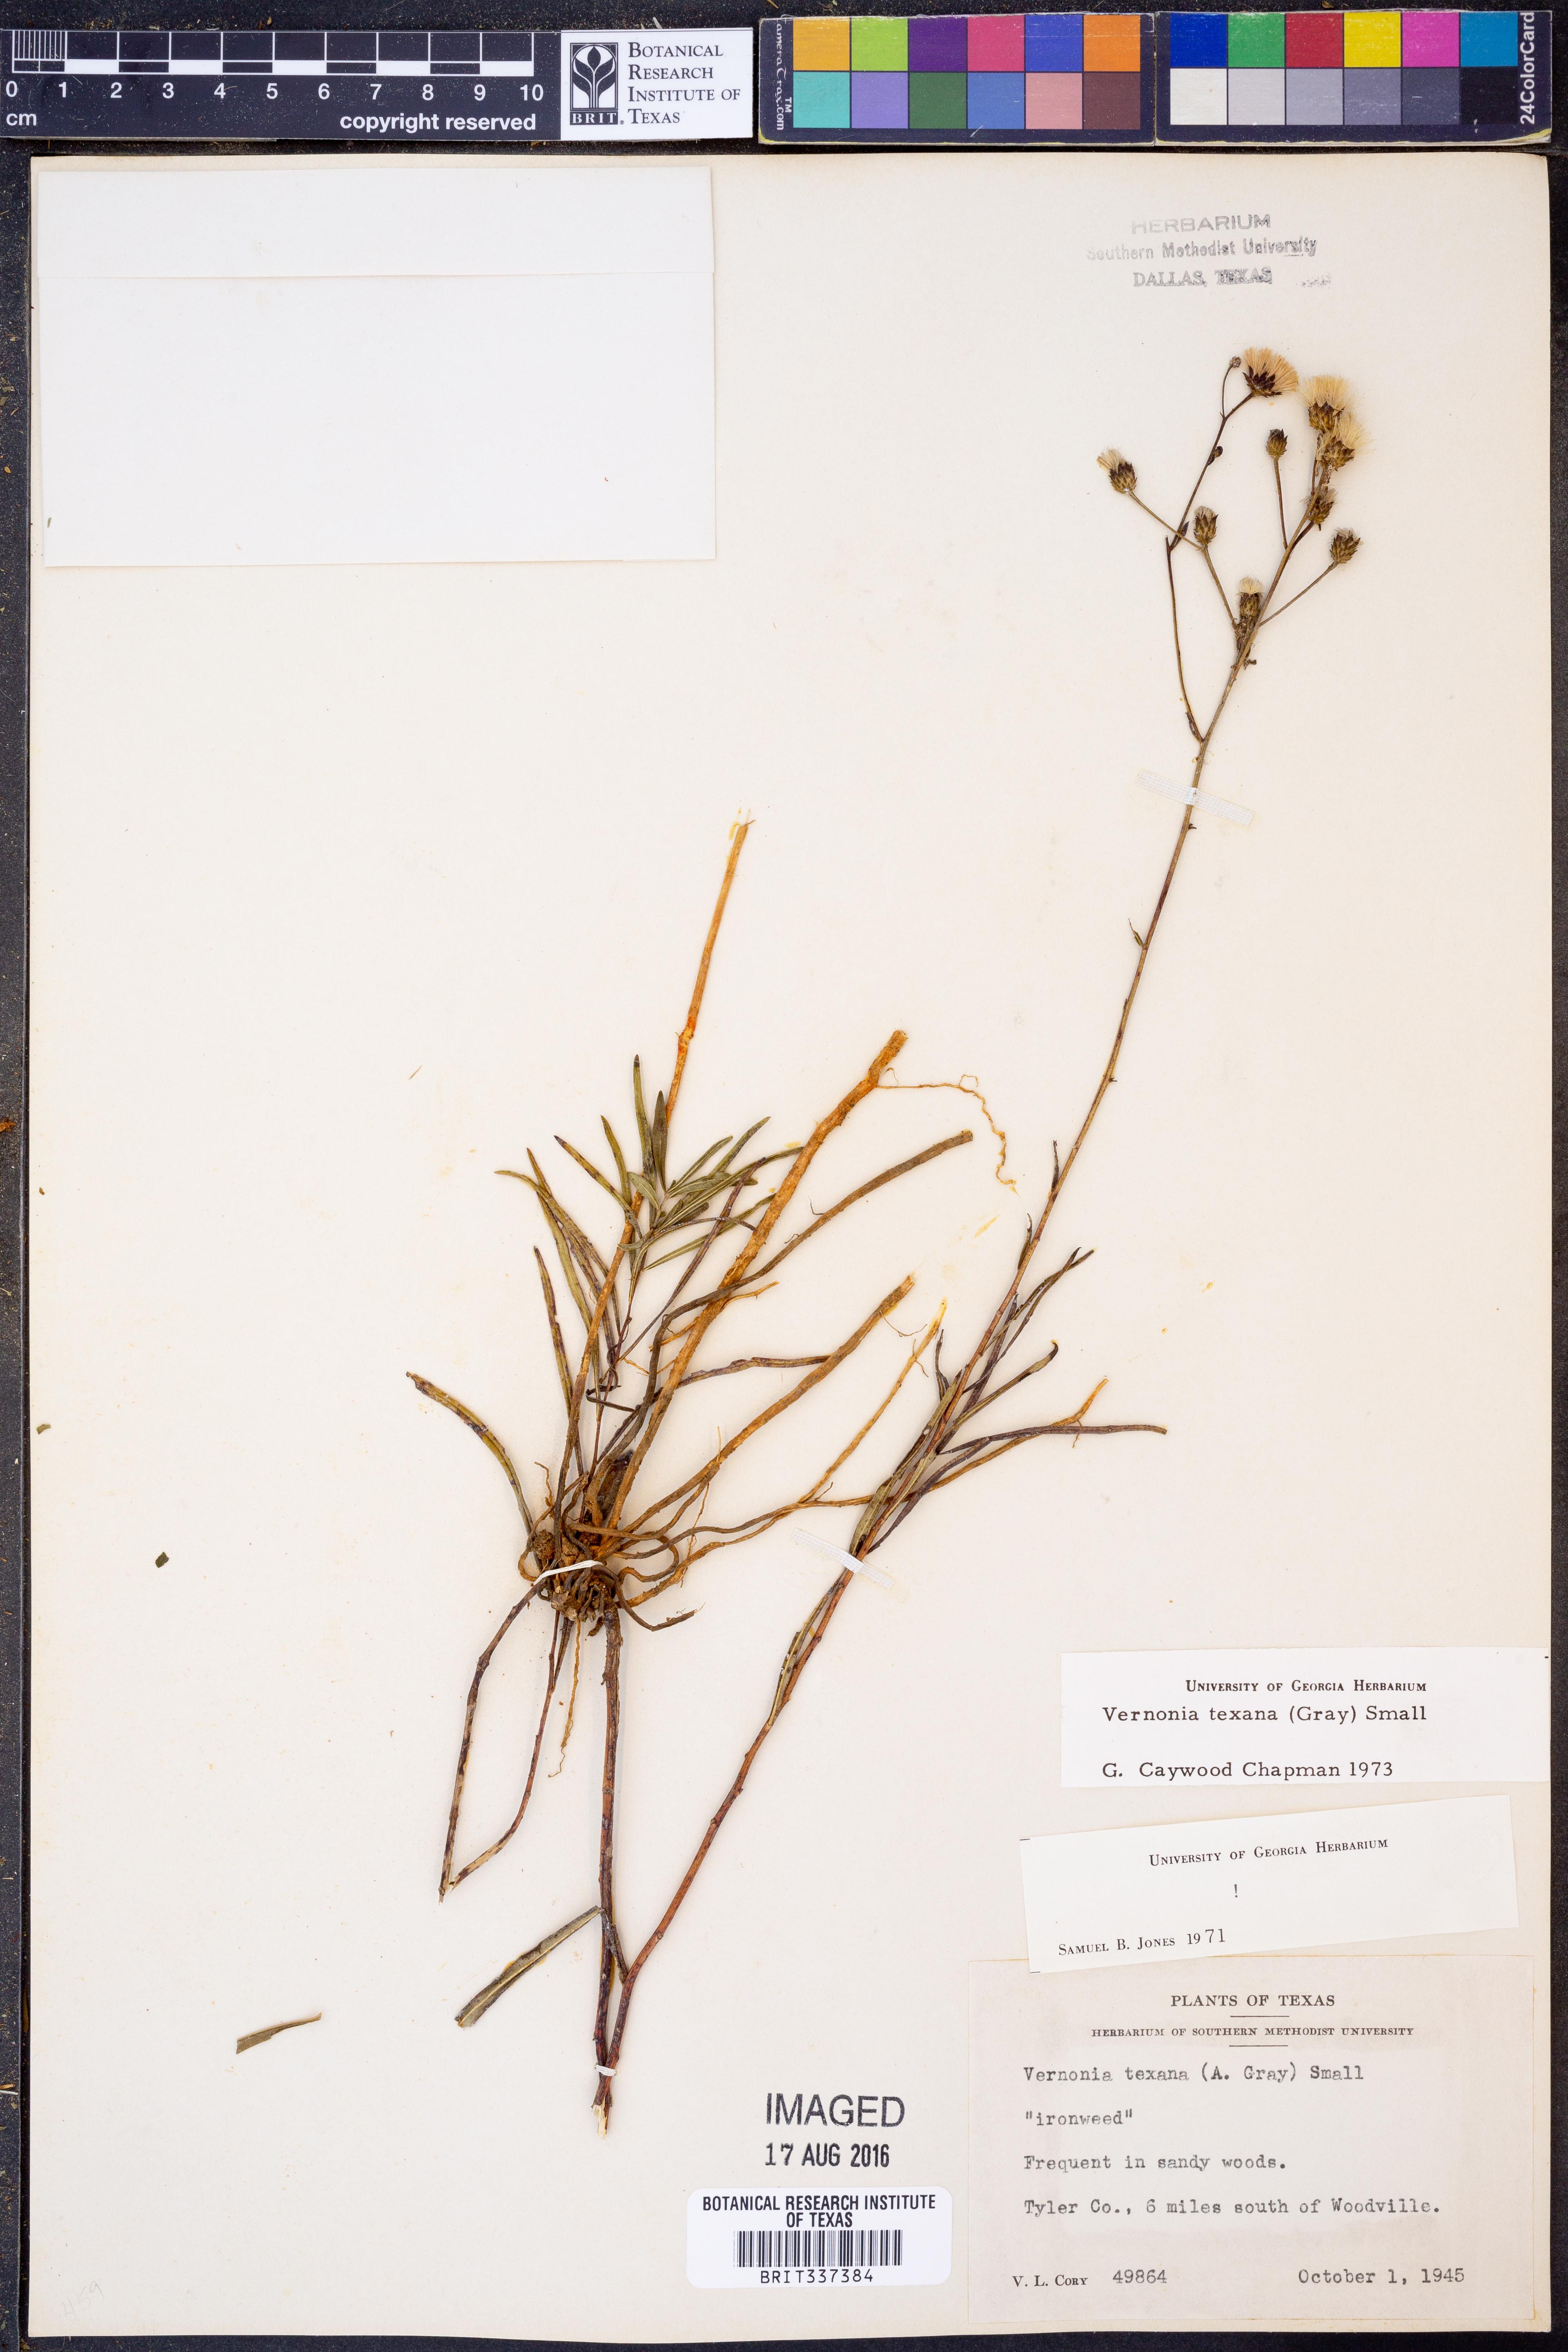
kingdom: Plantae
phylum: Tracheophyta
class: Magnoliopsida
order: Asterales
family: Asteraceae
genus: Vernonia
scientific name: Vernonia texana
